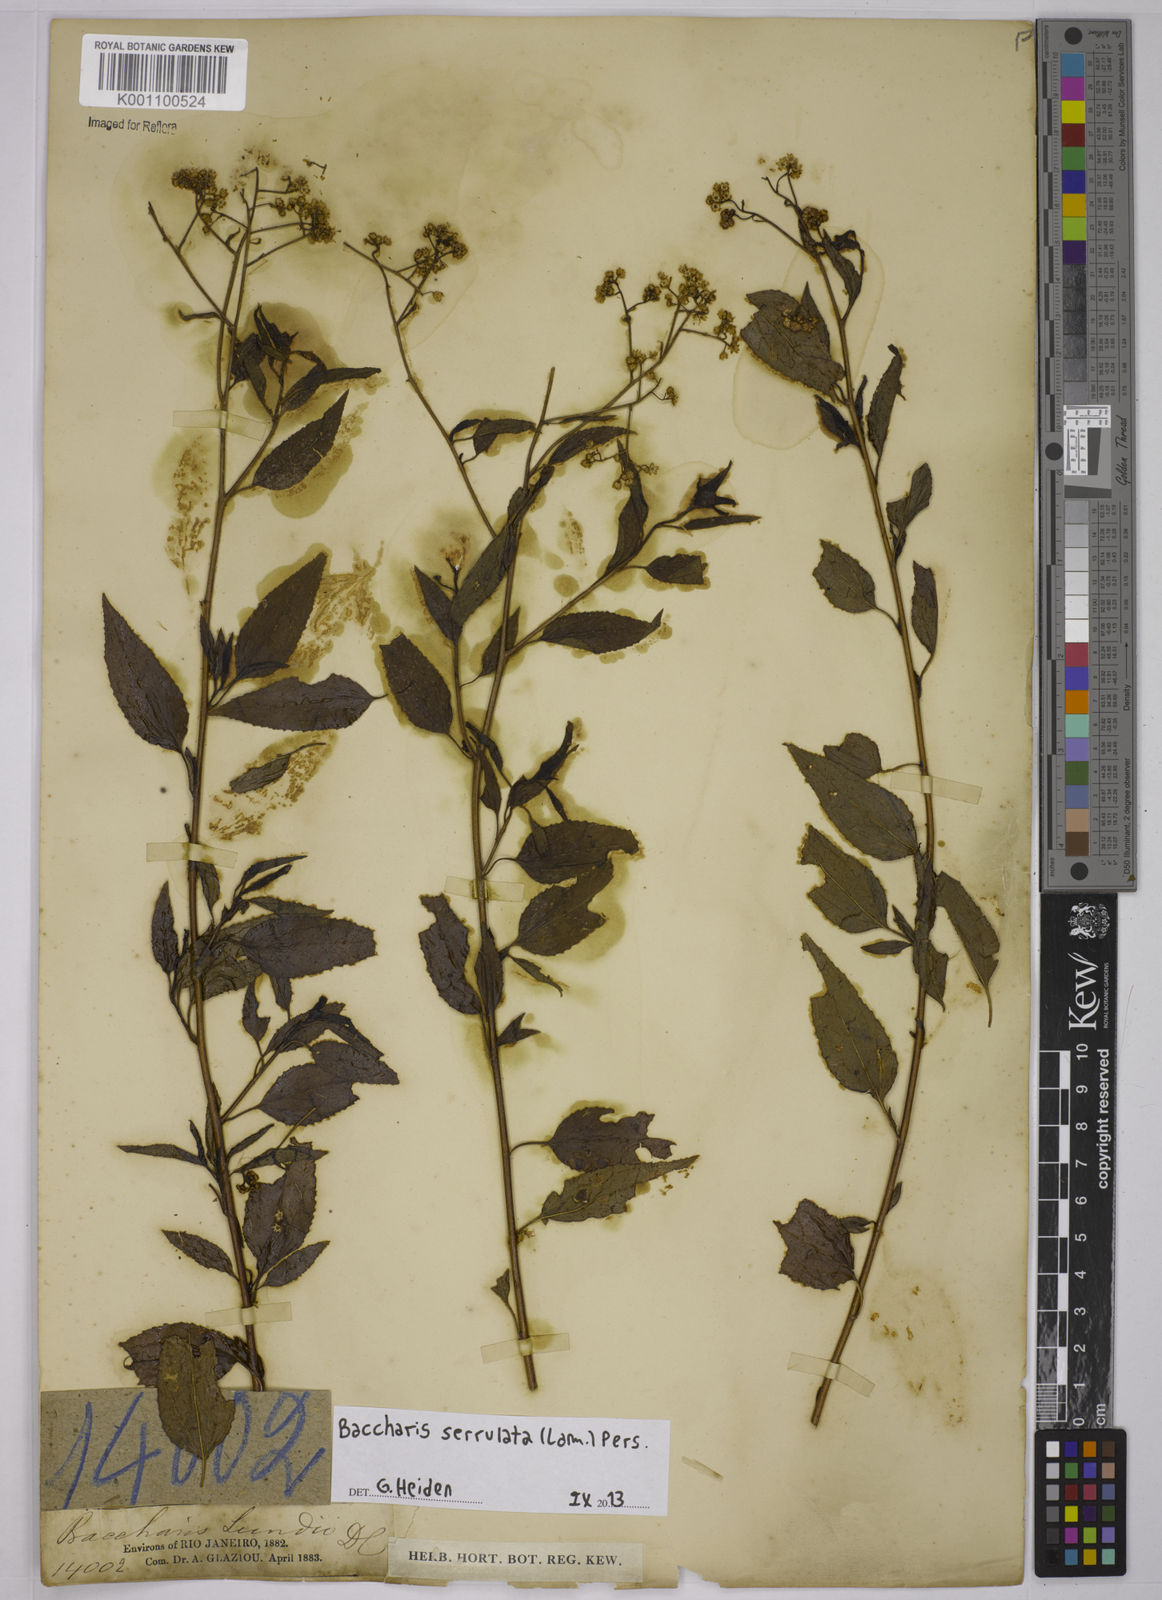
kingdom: Plantae
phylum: Tracheophyta
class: Magnoliopsida
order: Asterales
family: Asteraceae
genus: Baccharis
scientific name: Baccharis serrulata
